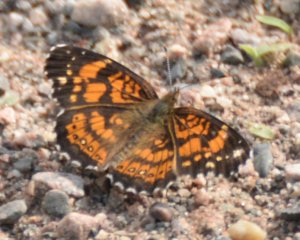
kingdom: Animalia
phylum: Arthropoda
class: Insecta
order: Lepidoptera
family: Nymphalidae
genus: Chlosyne
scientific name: Chlosyne nycteis
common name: Silvery Checkerspot
